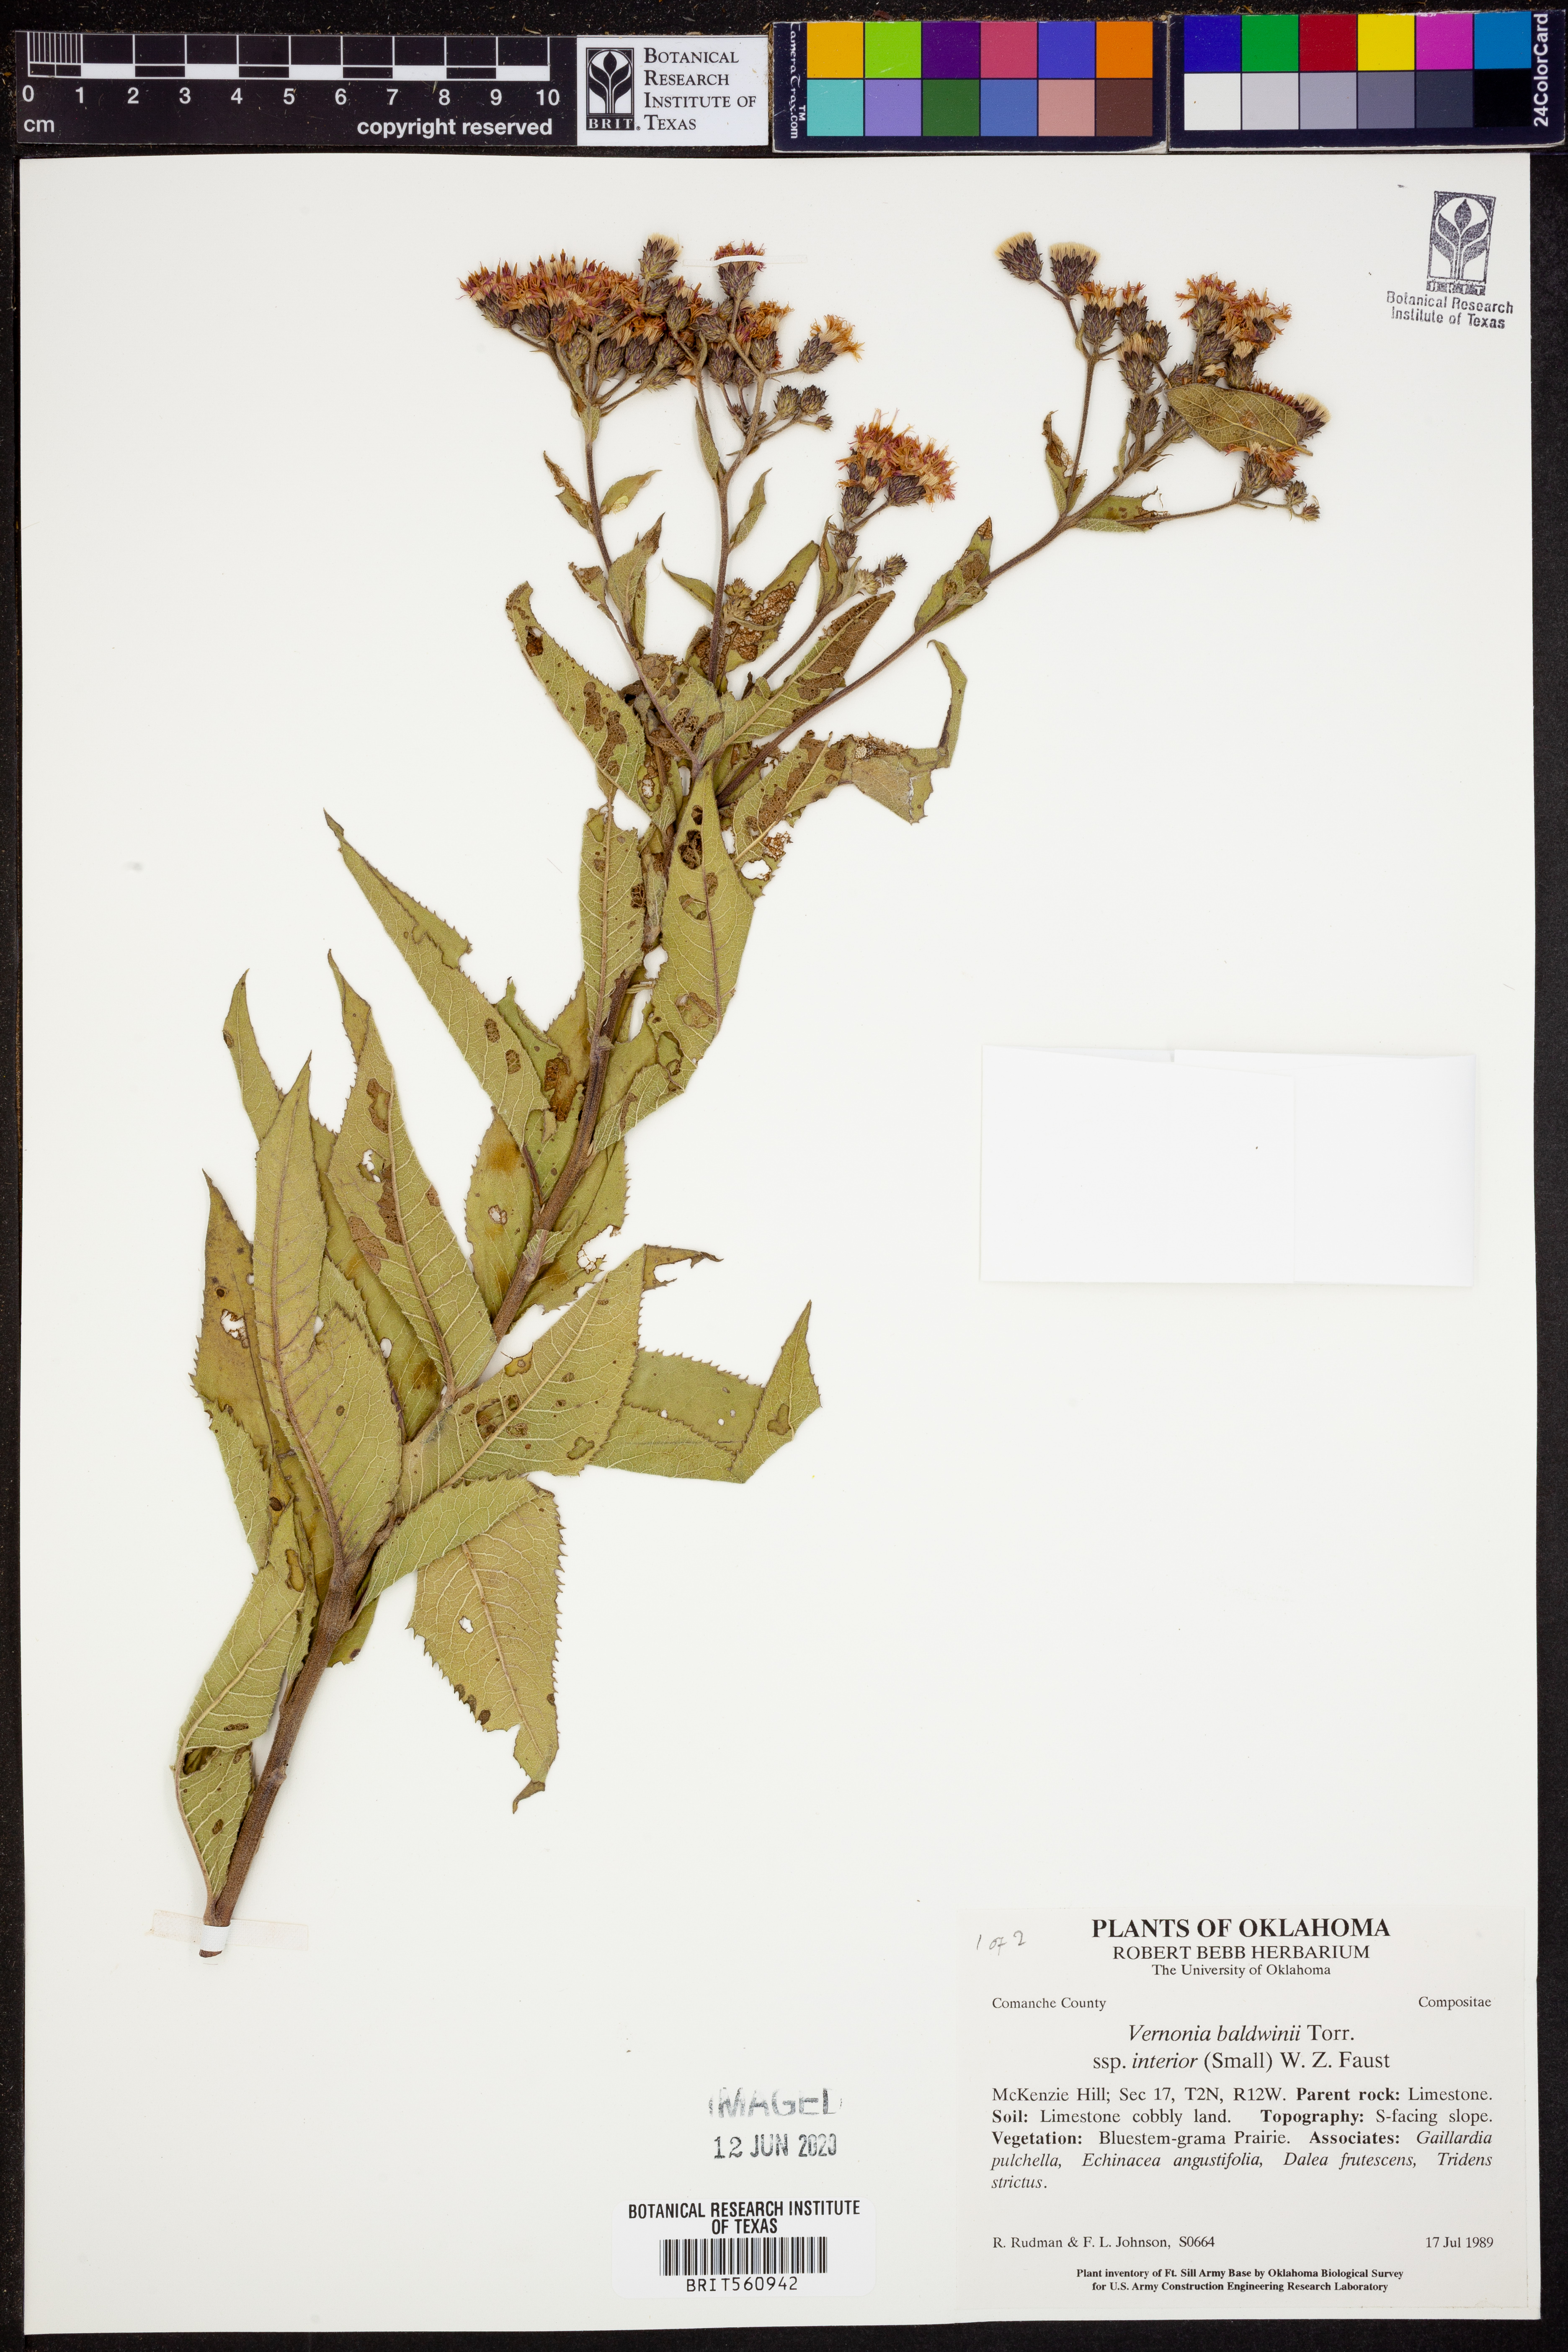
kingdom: Plantae
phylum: Tracheophyta
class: Magnoliopsida
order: Asterales
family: Asteraceae
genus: Vernonia
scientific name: Vernonia baldwinii
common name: Western ironweed
